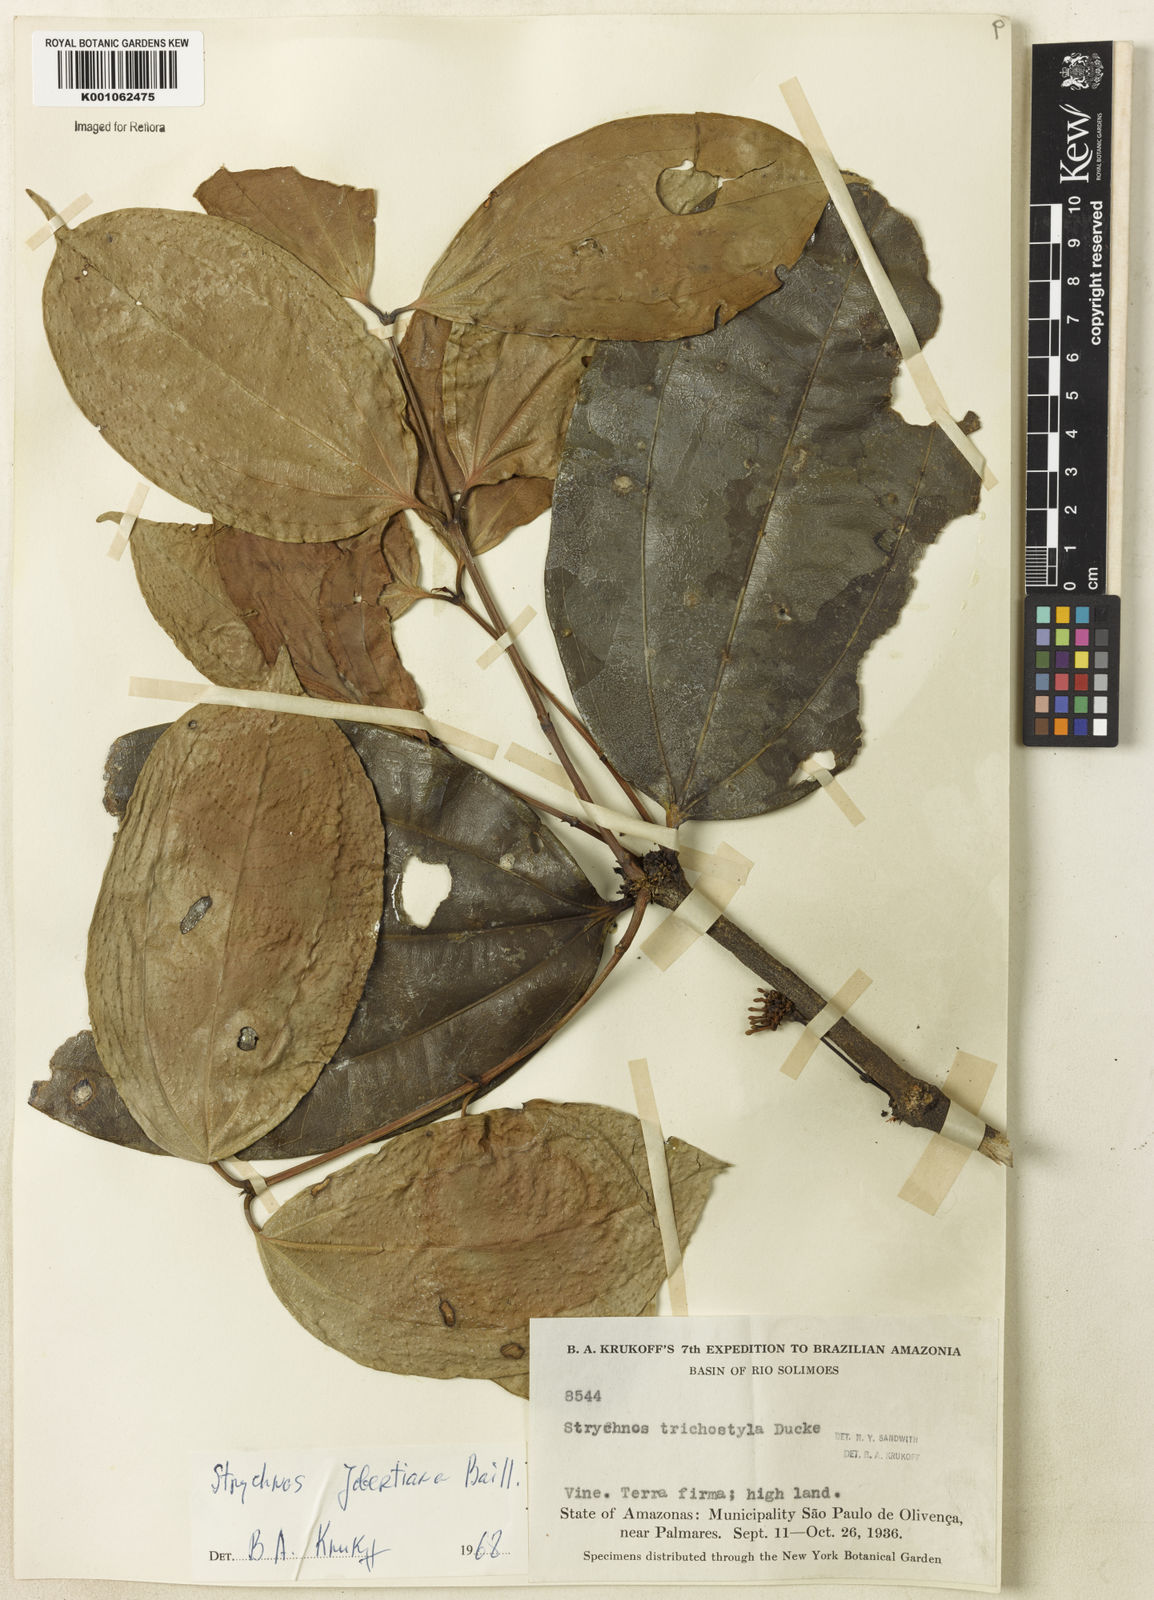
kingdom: Plantae
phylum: Tracheophyta
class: Magnoliopsida
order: Gentianales
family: Loganiaceae
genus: Strychnos
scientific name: Strychnos jobertiana
